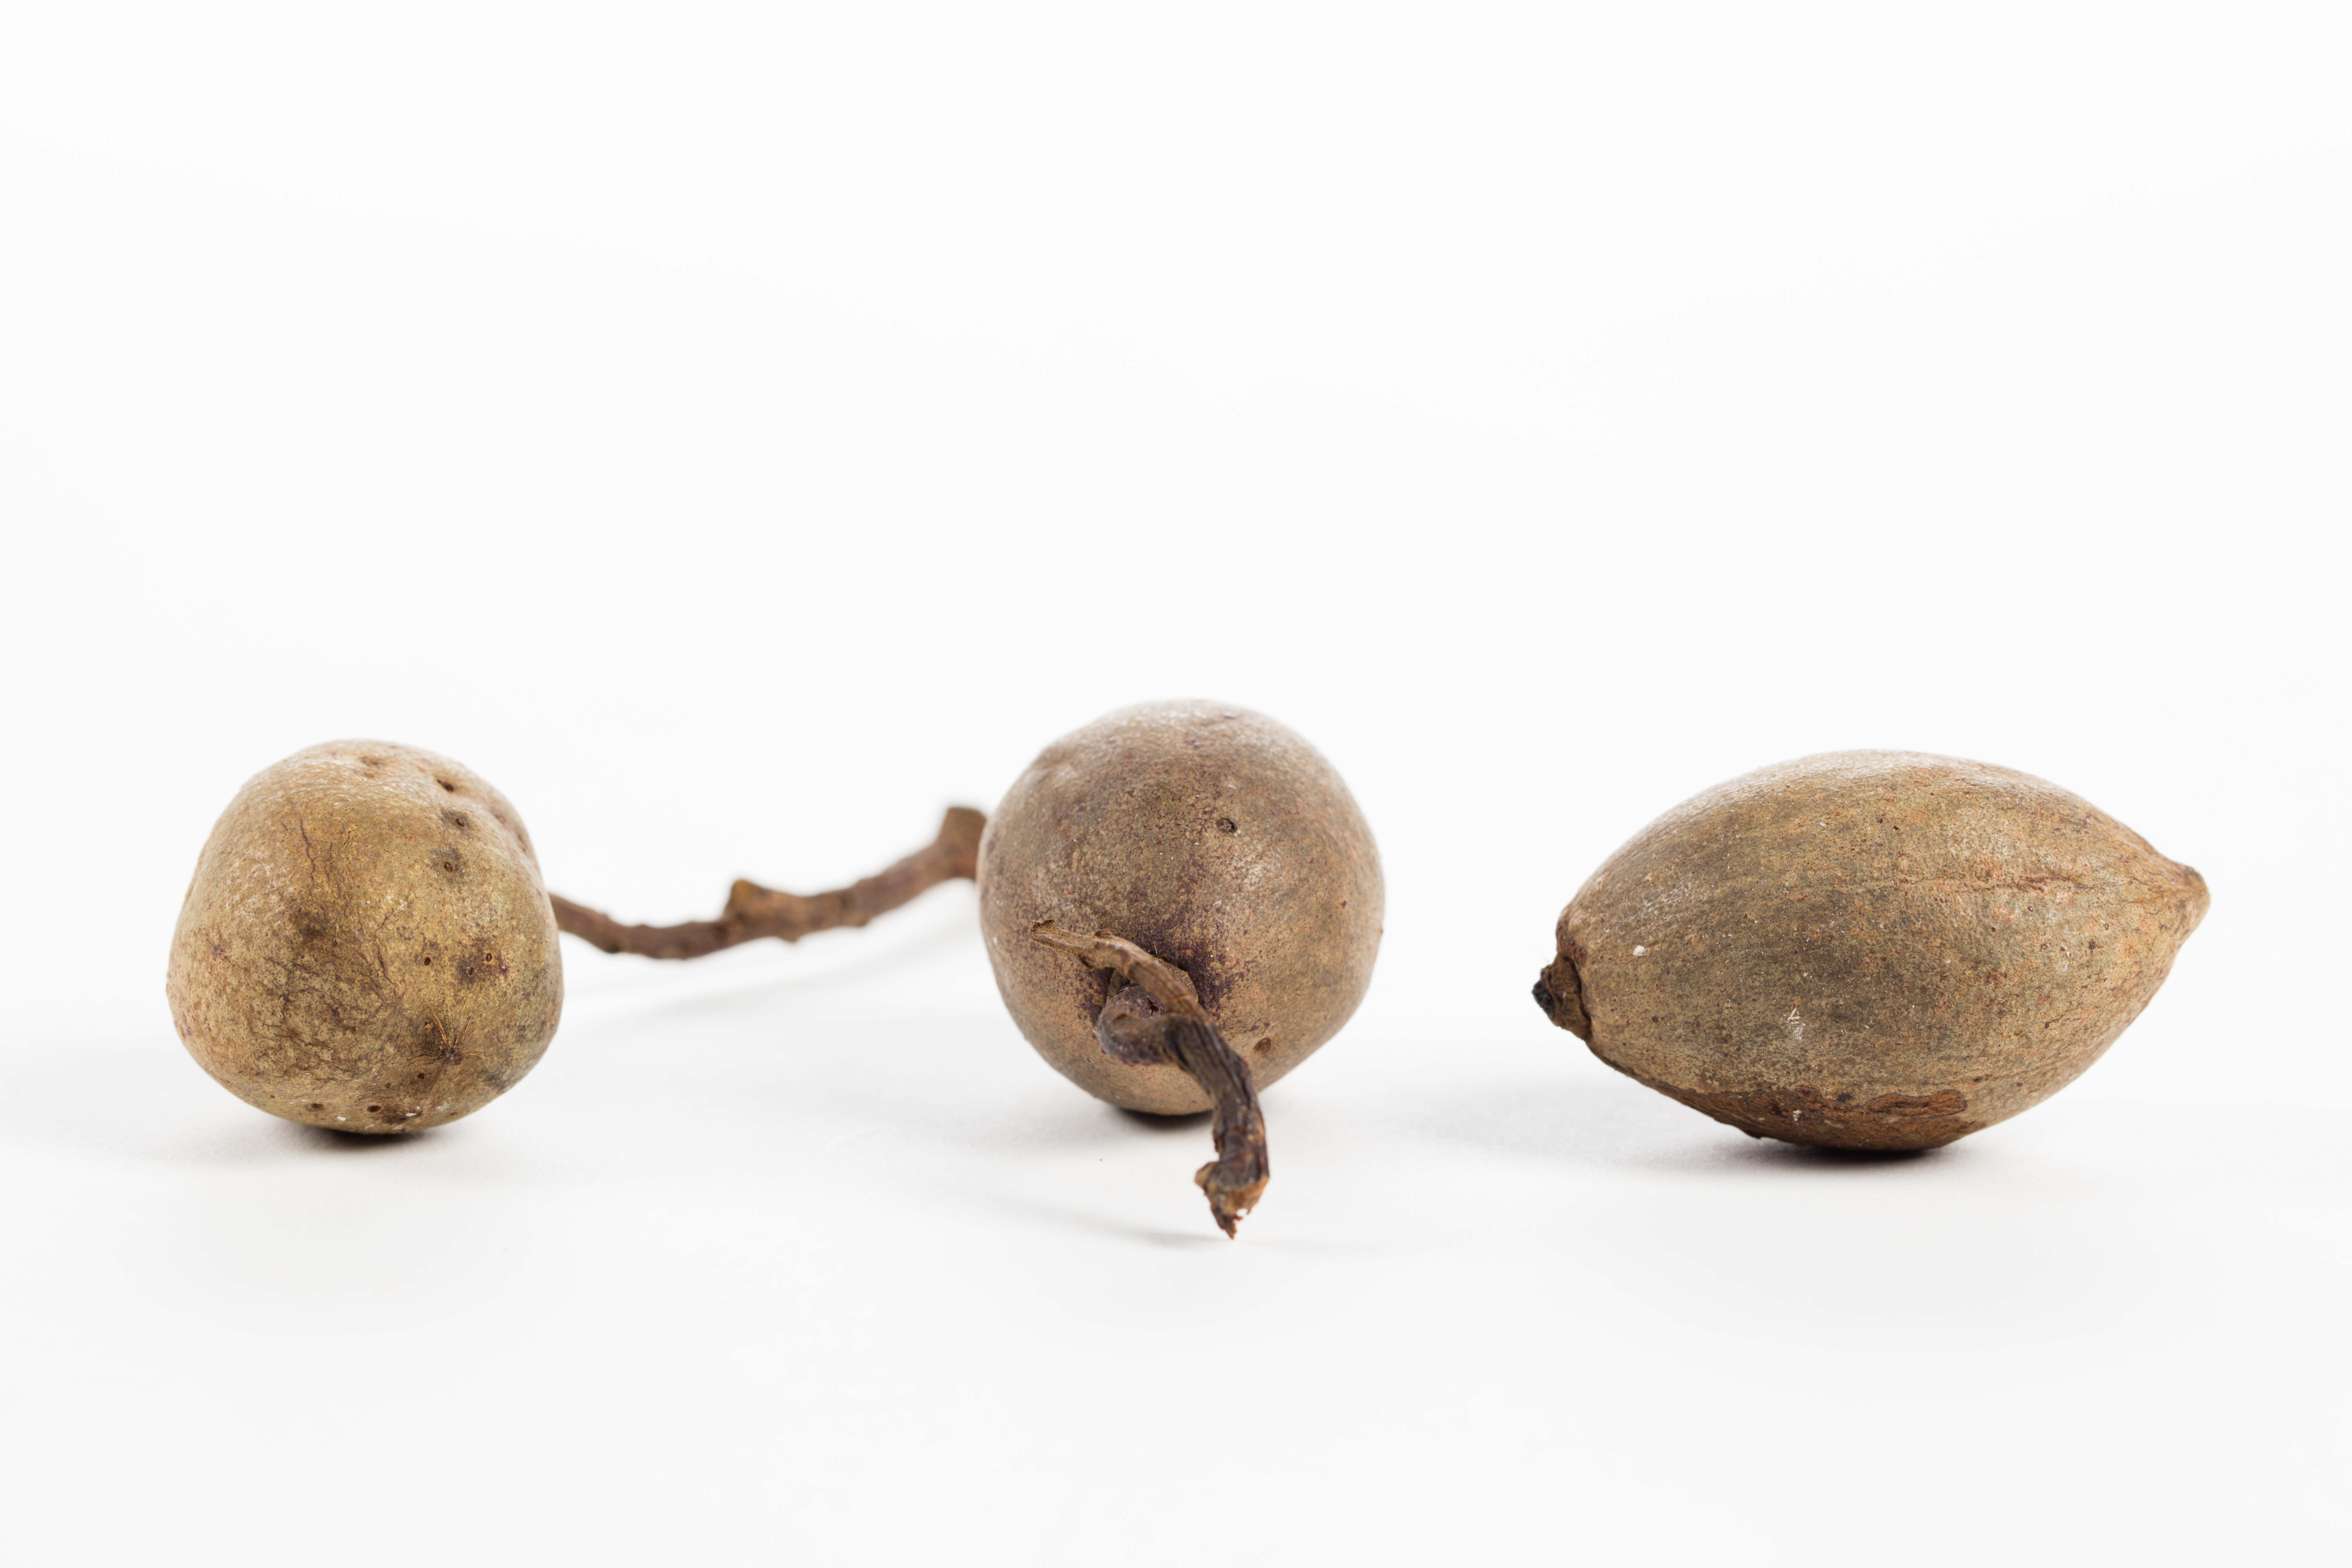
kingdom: Plantae
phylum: Tracheophyta
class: Magnoliopsida
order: Oxalidales
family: Elaeocarpaceae
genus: Elaeocarpus
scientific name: Elaeocarpus ptilanthus
